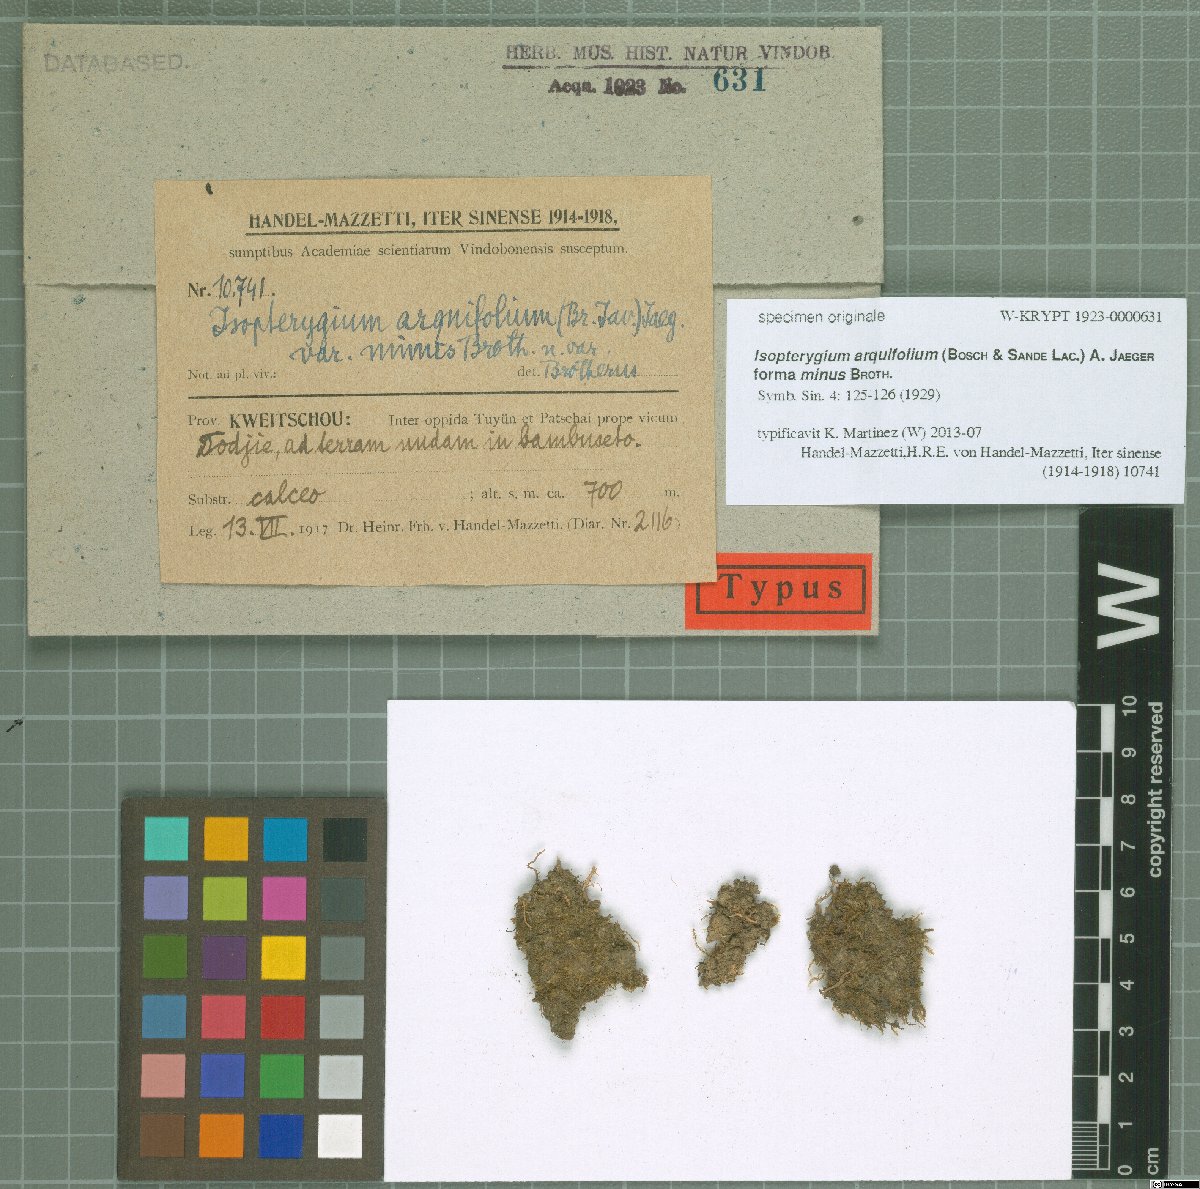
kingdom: Plantae
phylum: Bryophyta
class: Bryopsida
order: Hypnales
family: Plagiotheciaceae
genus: Pseudotaxiphyllum
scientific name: Pseudotaxiphyllum pohliicarpum
